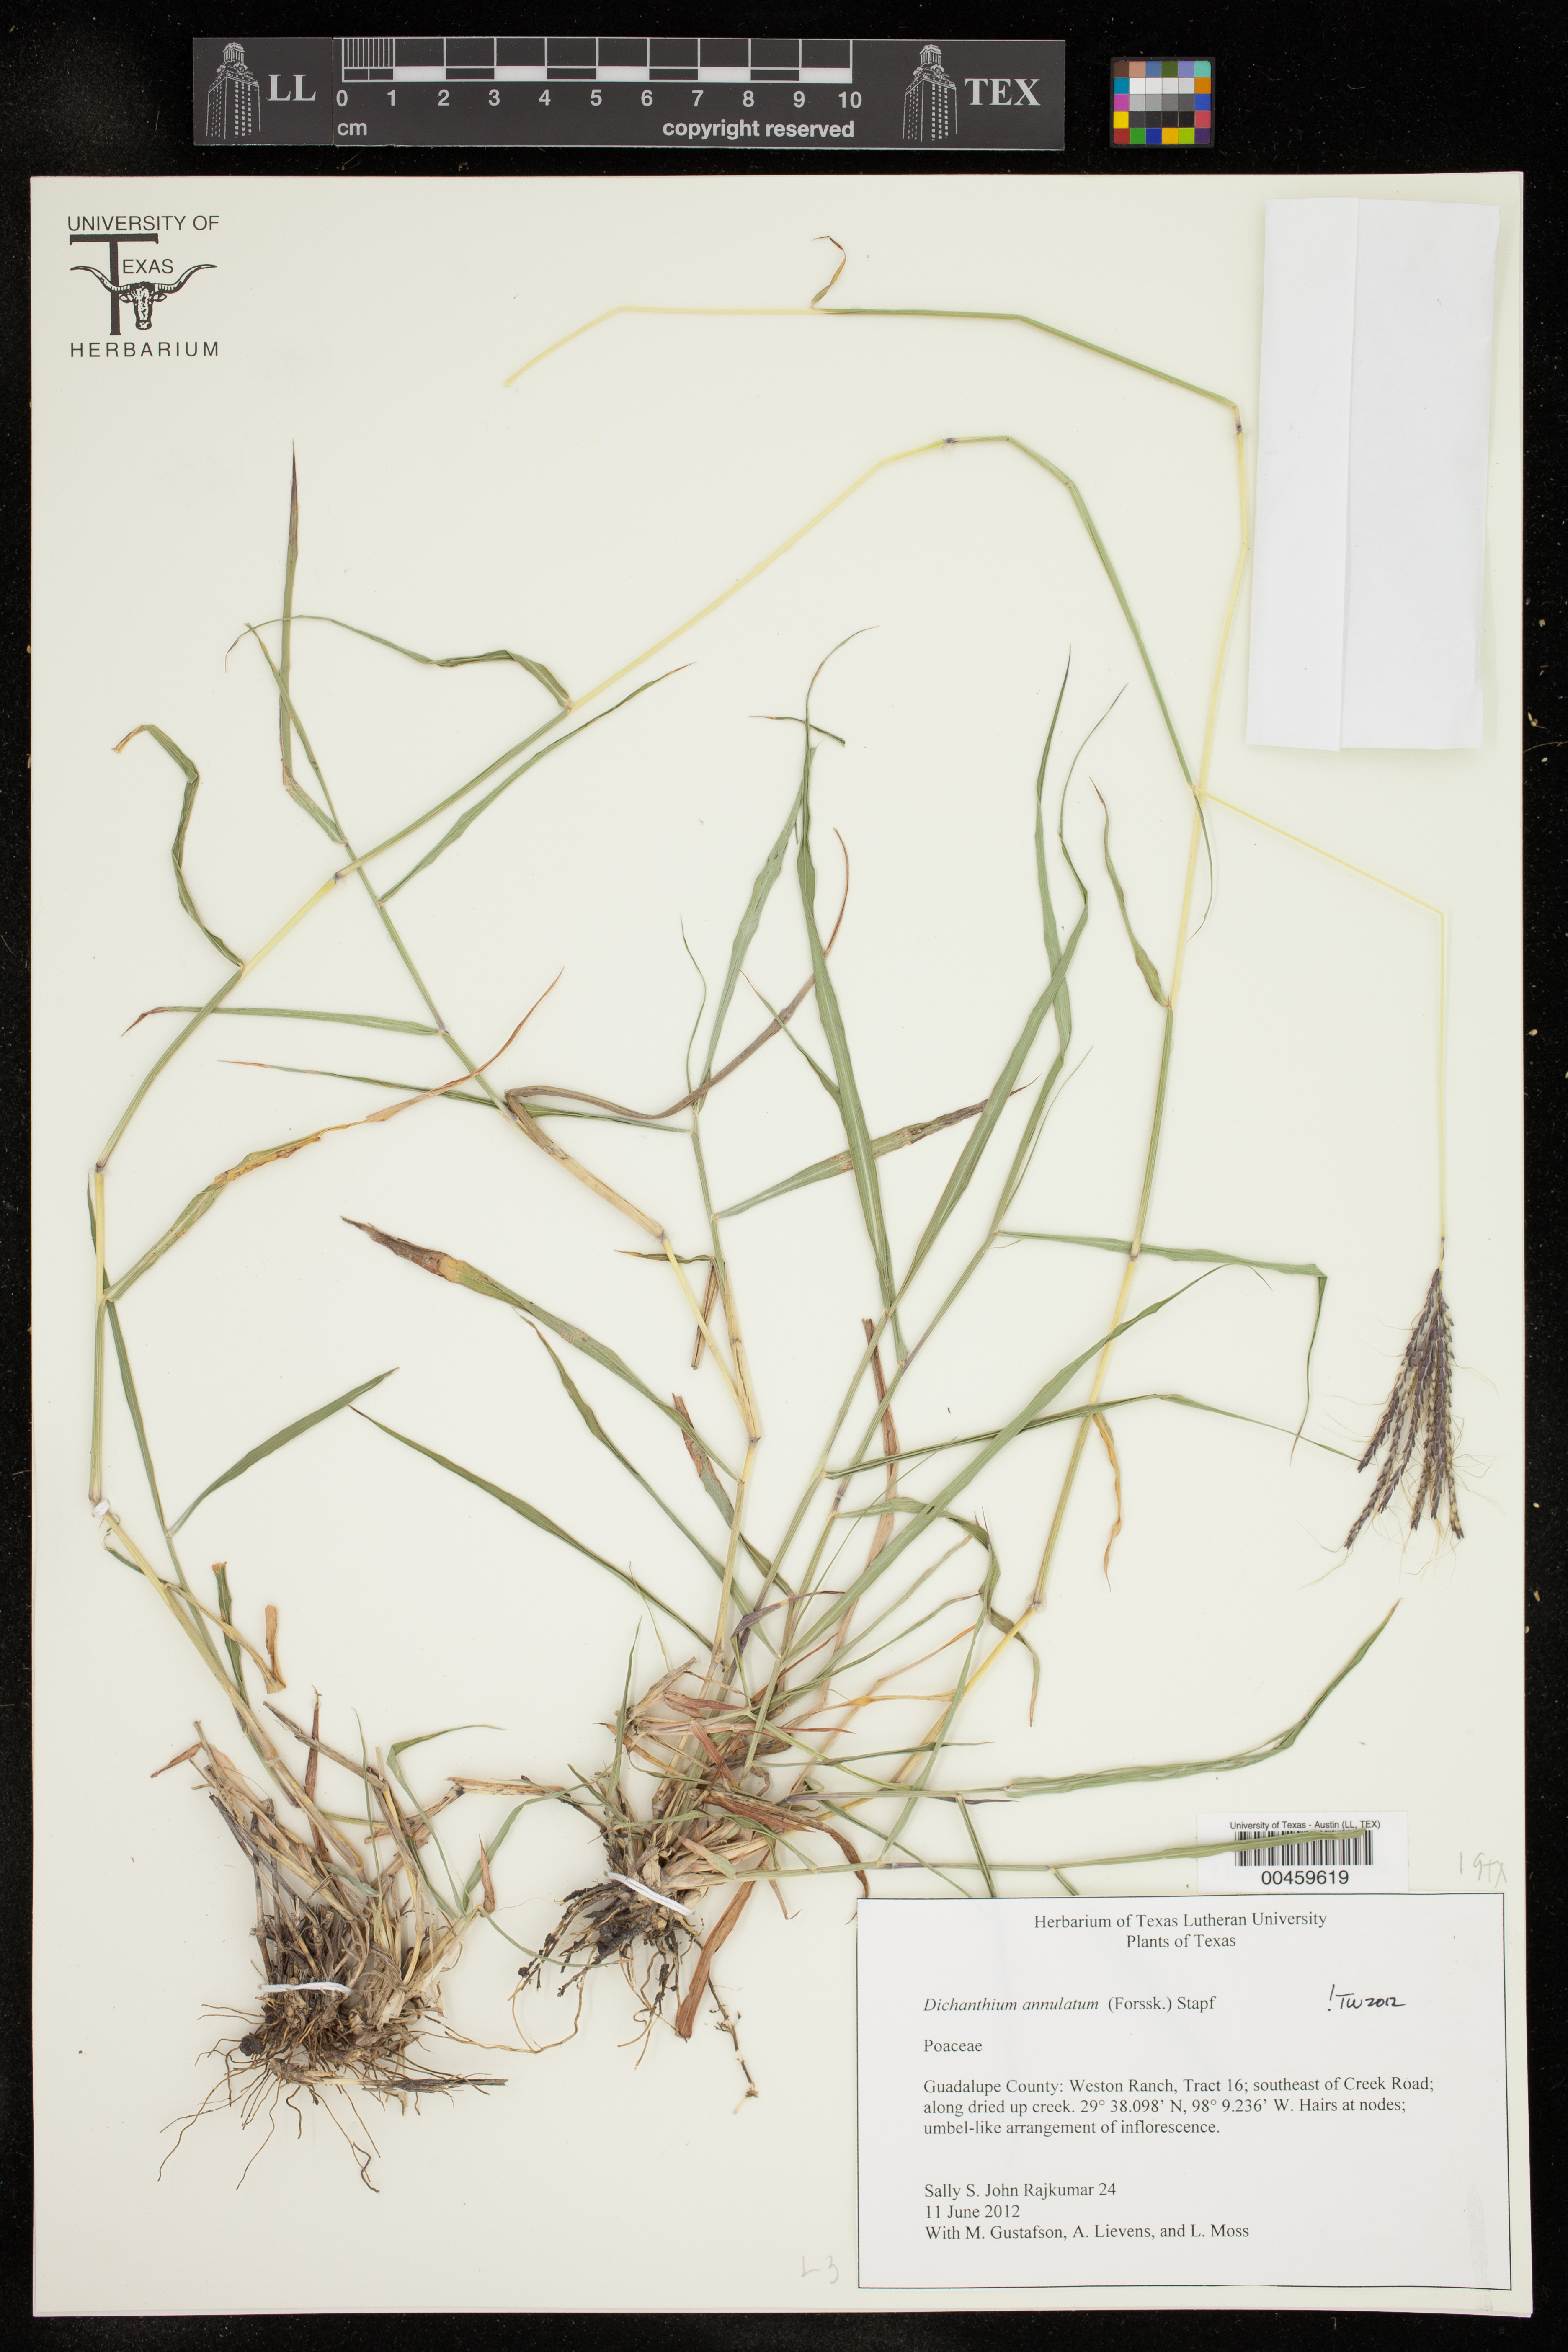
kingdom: Plantae
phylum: Tracheophyta
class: Liliopsida
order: Poales
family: Poaceae
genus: Dichanthium
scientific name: Dichanthium annulatum
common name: Kleberg's bluestem
